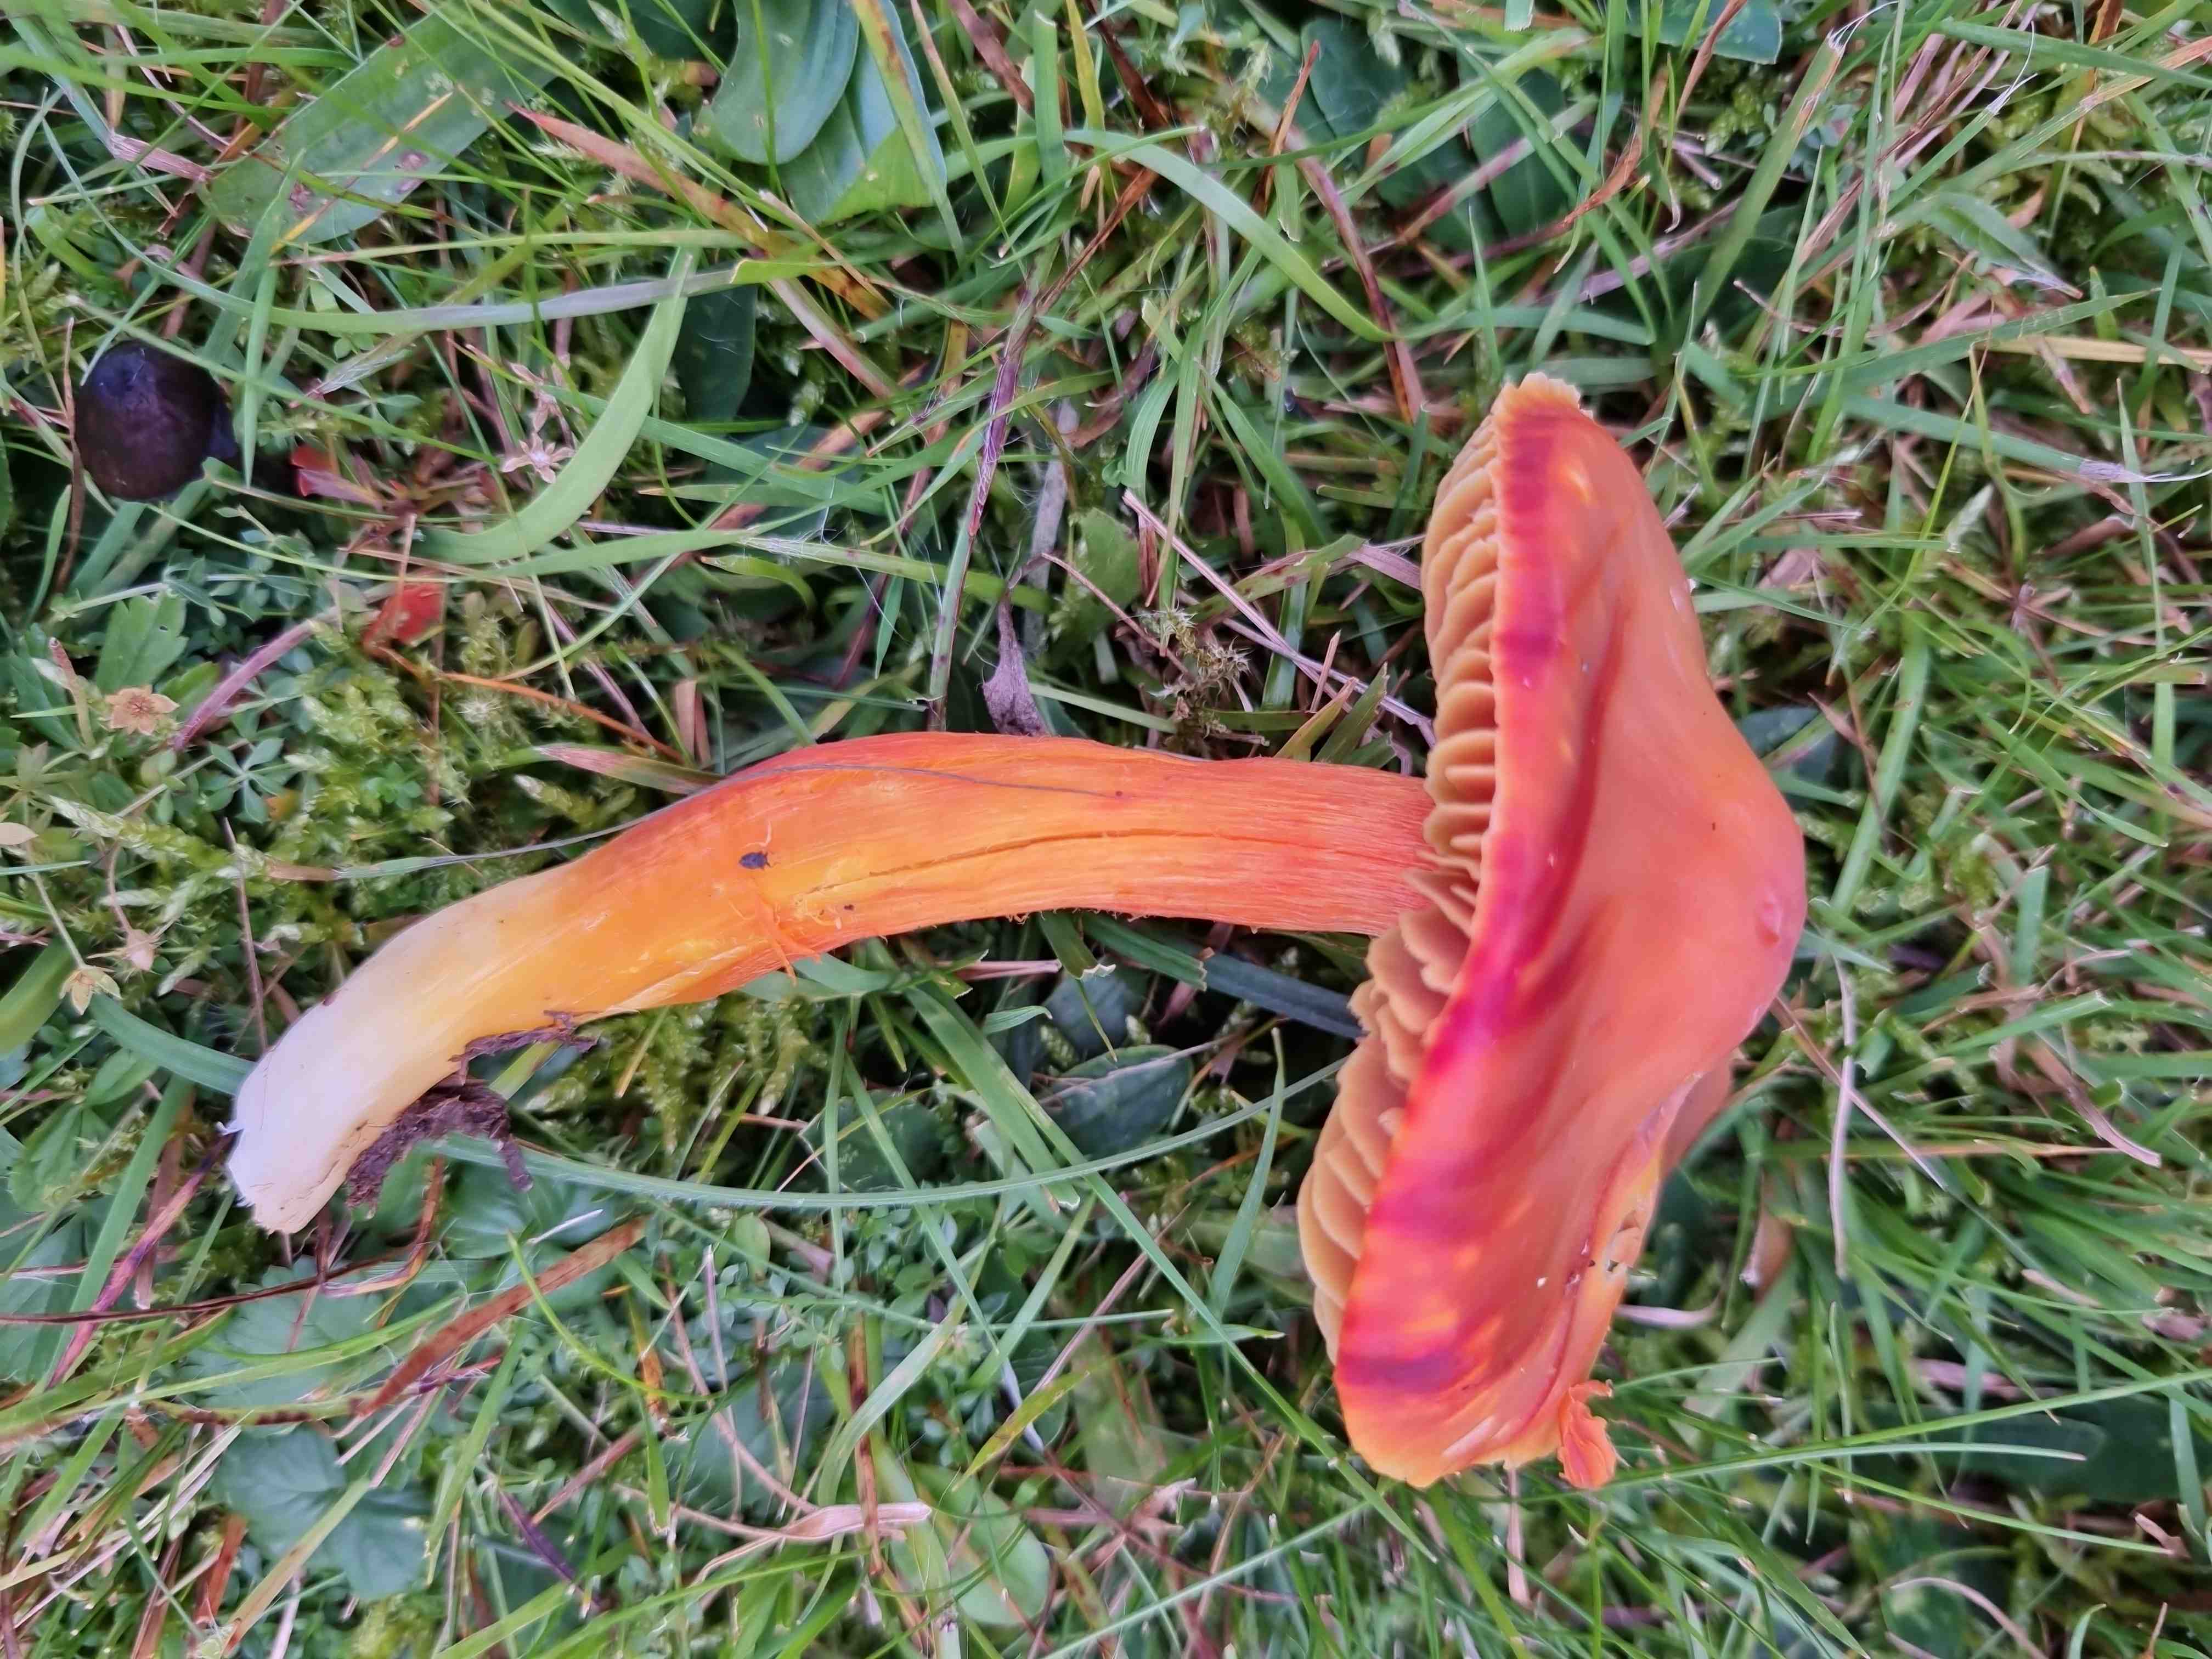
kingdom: Fungi
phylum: Basidiomycota
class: Agaricomycetes
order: Agaricales
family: Hygrophoraceae
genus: Hygrocybe
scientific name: Hygrocybe punicea
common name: skarlagen-vokshat
